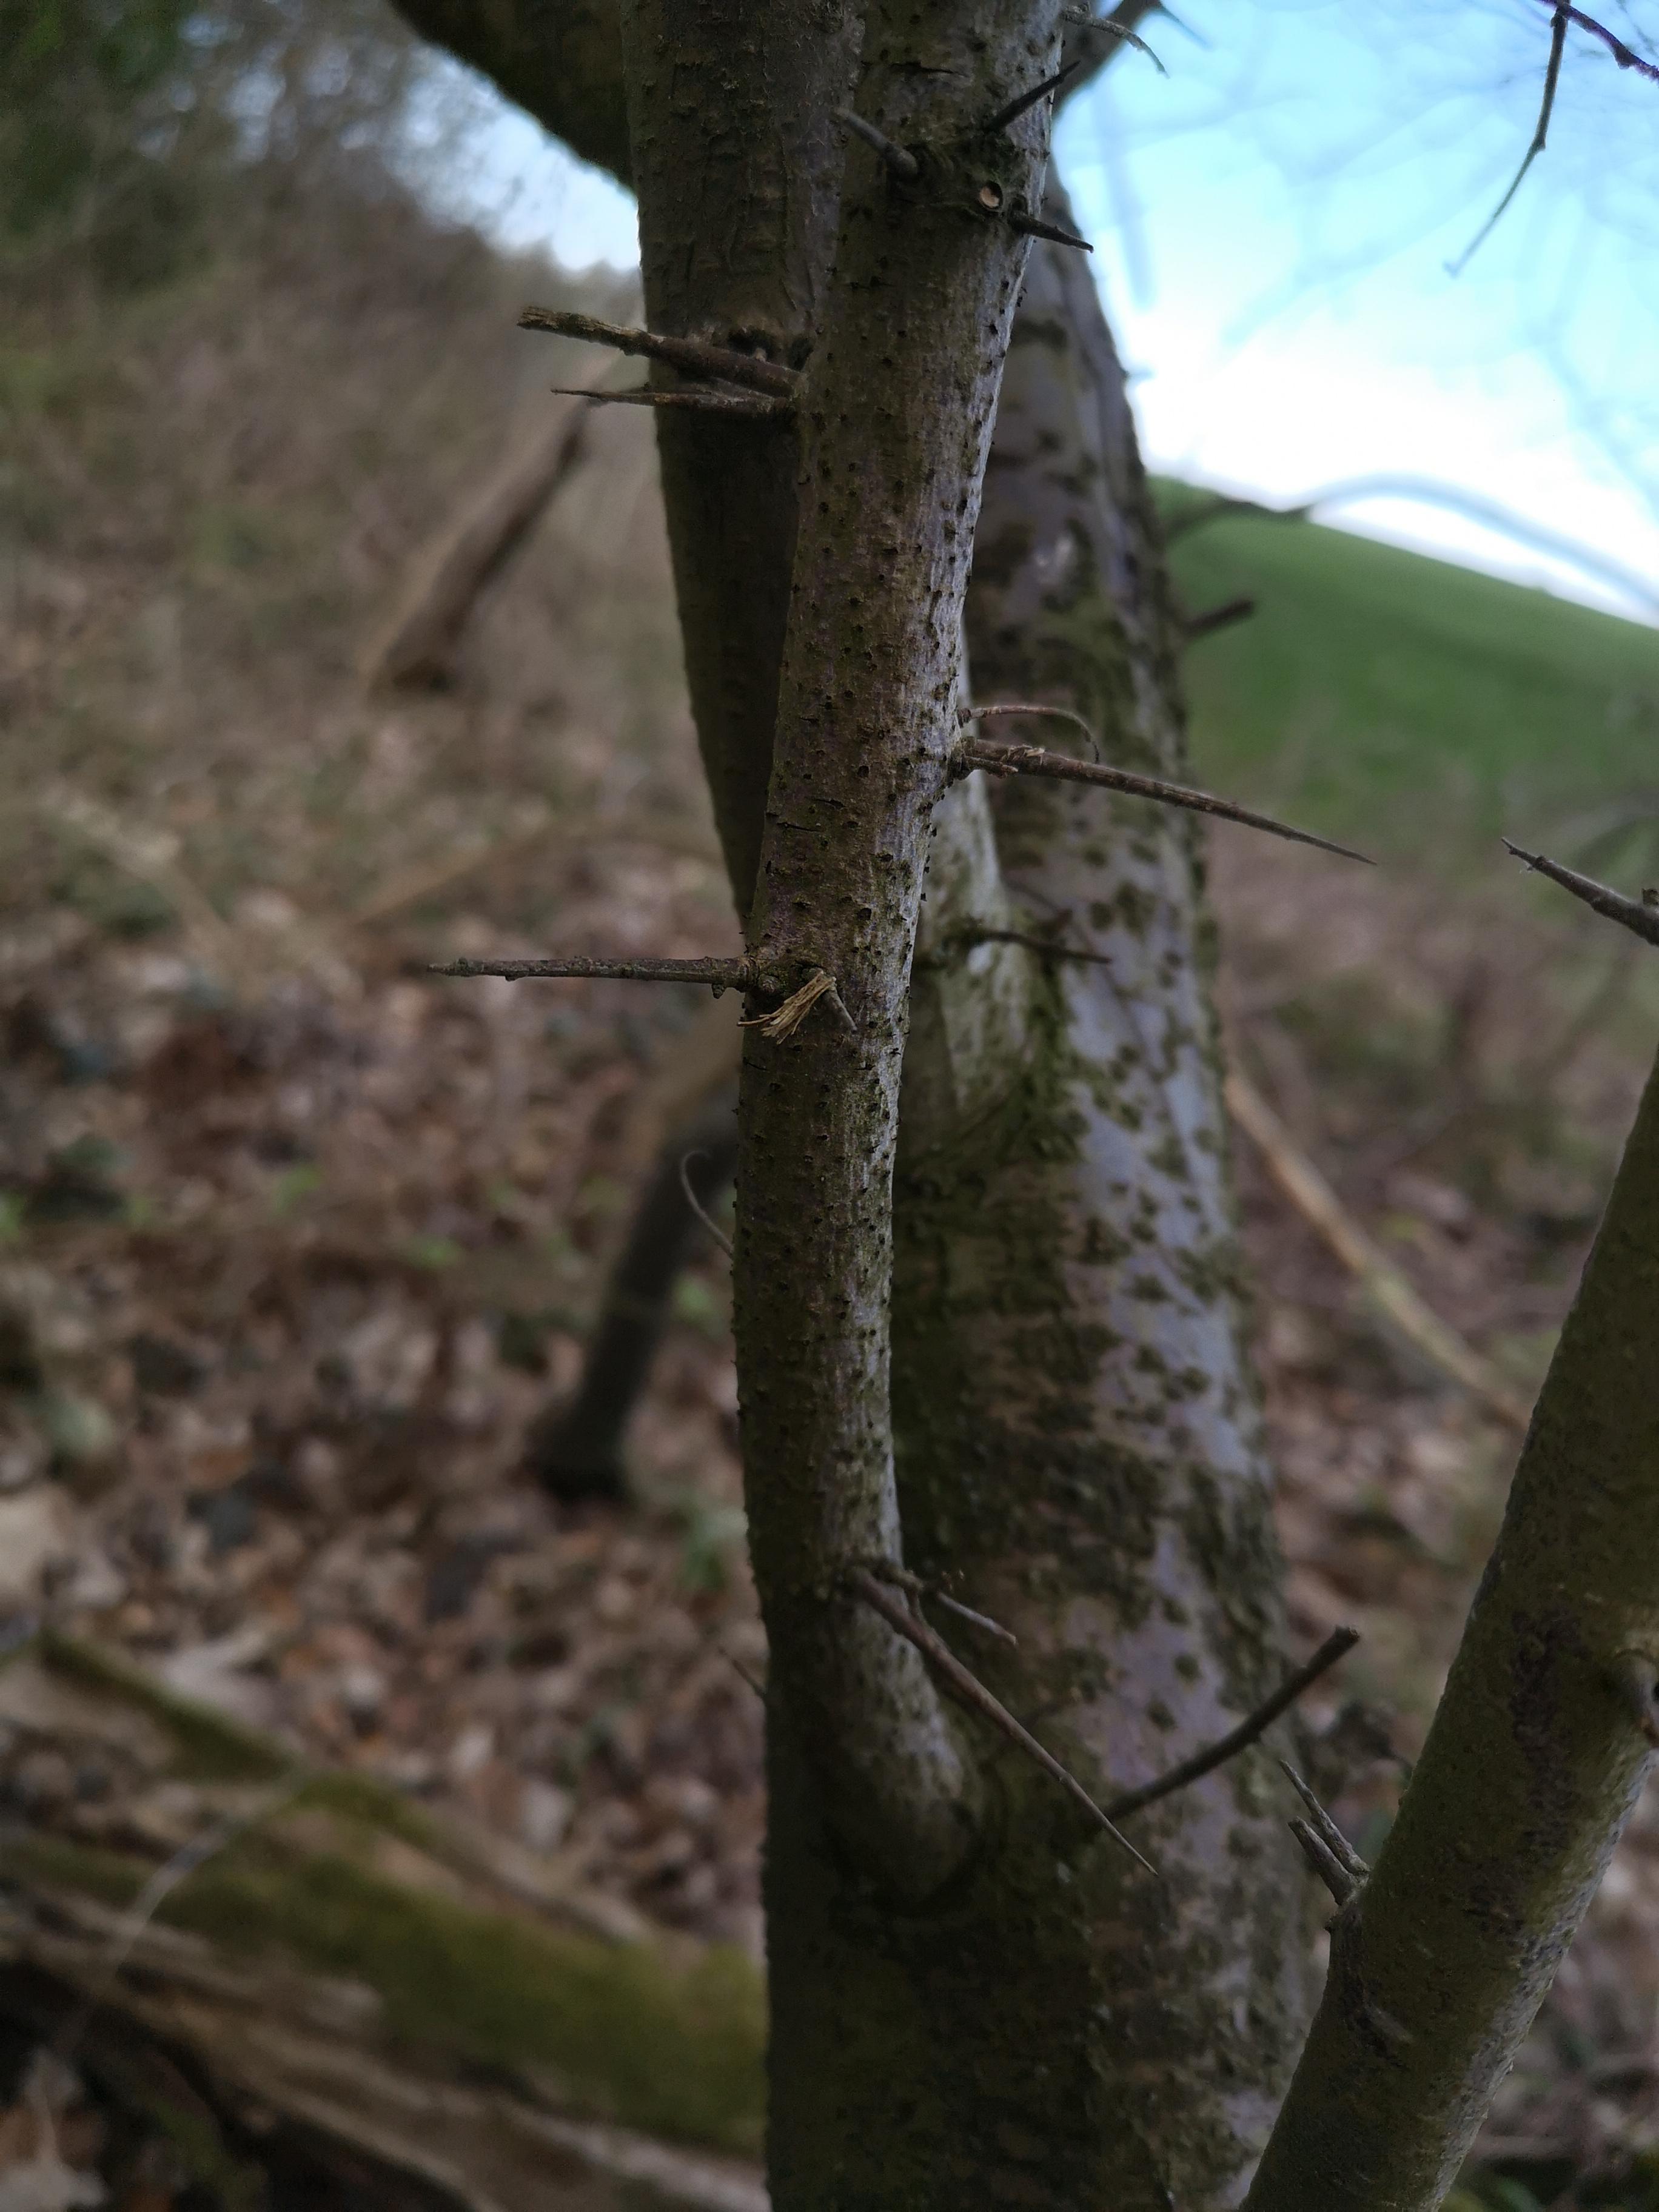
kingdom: Fungi
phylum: Ascomycota
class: Leotiomycetes
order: Helotiales
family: Dermateaceae
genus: Dermea
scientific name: Dermea prunastri
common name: blomme-klyngeskive
